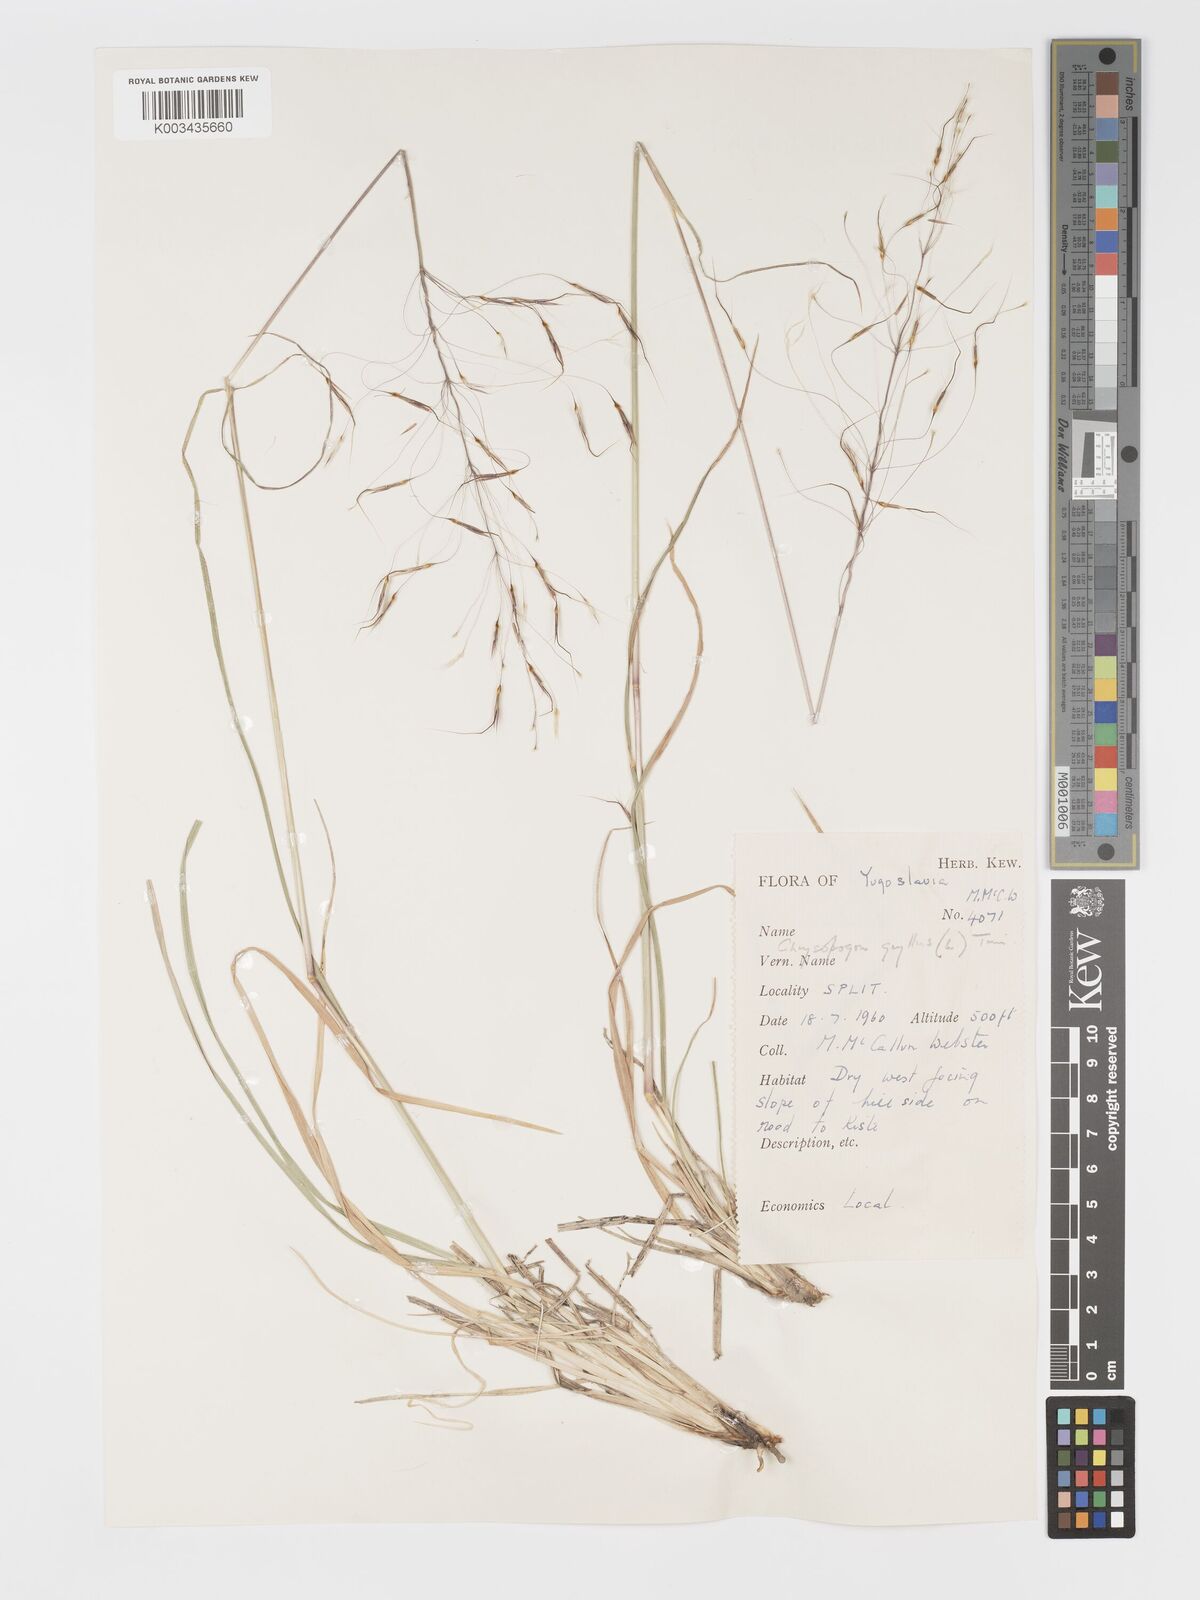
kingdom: Plantae
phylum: Tracheophyta
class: Liliopsida
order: Poales
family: Poaceae
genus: Chrysopogon
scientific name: Chrysopogon gryllus
